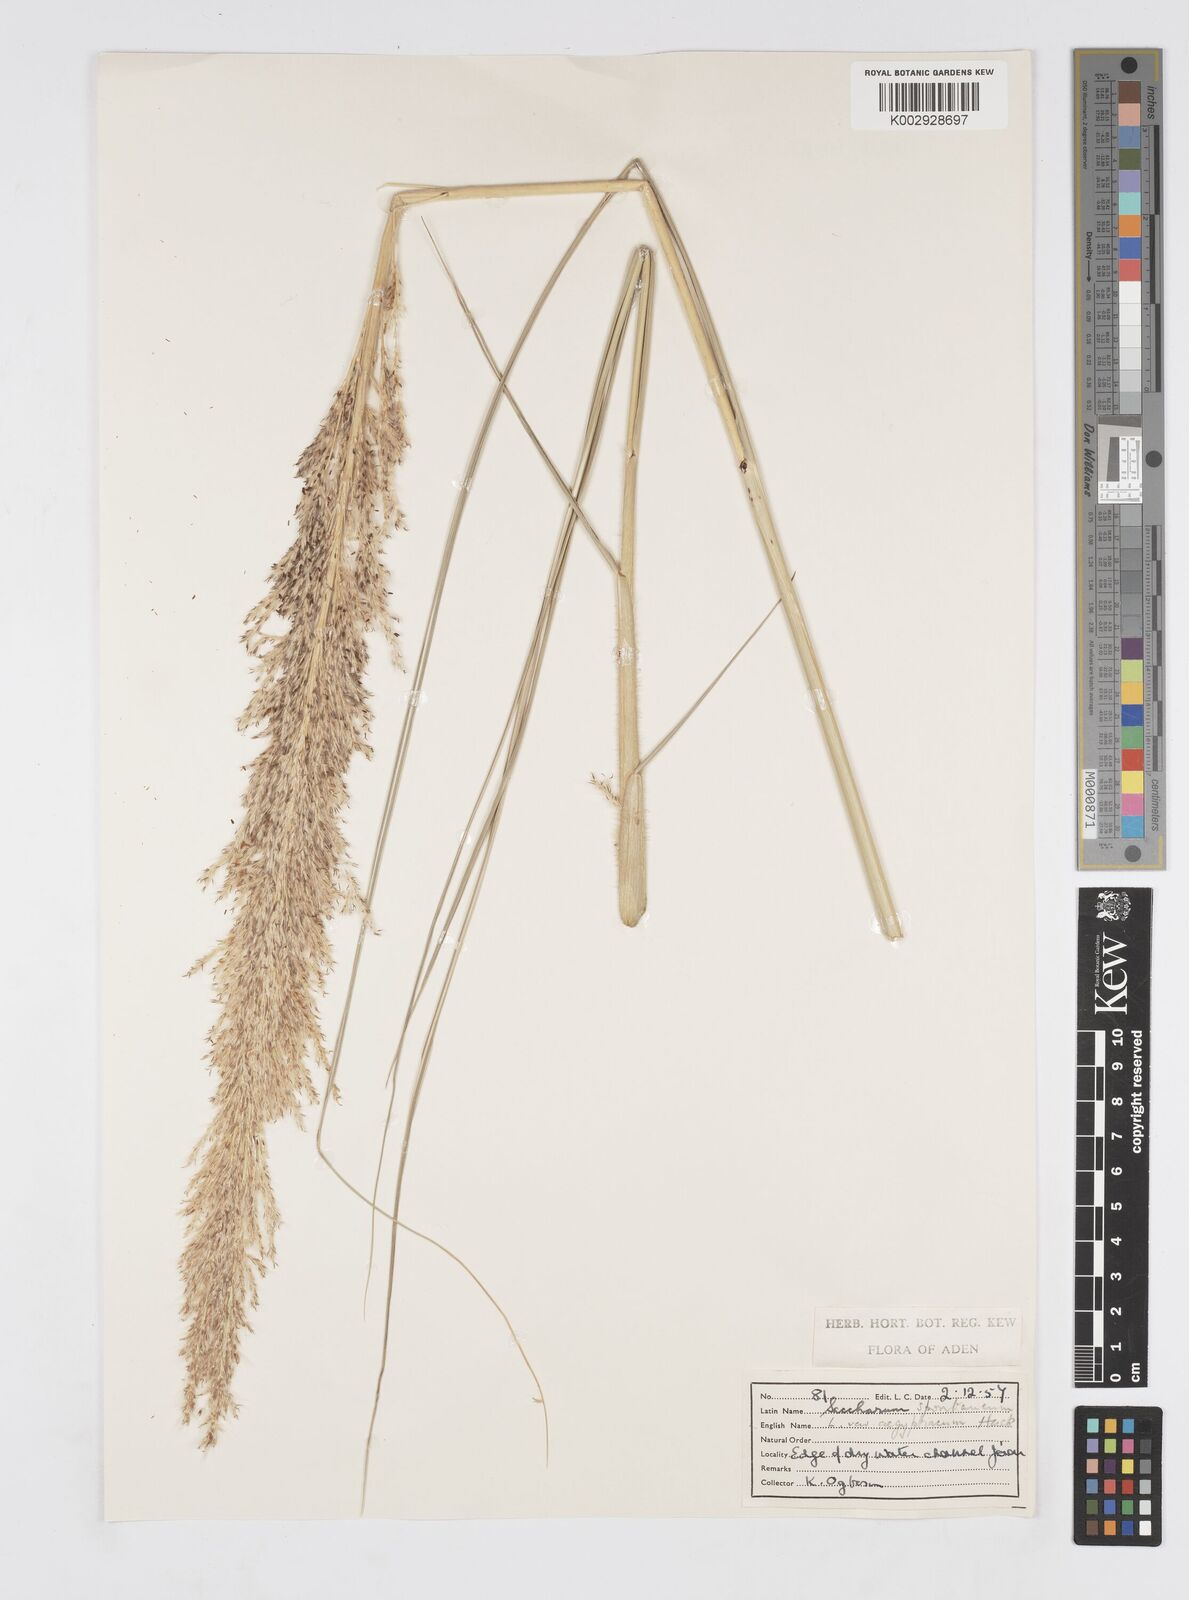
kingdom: Plantae
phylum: Tracheophyta
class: Liliopsida
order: Poales
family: Poaceae
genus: Saccharum
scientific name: Saccharum spontaneum
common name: Wild sugarcane
